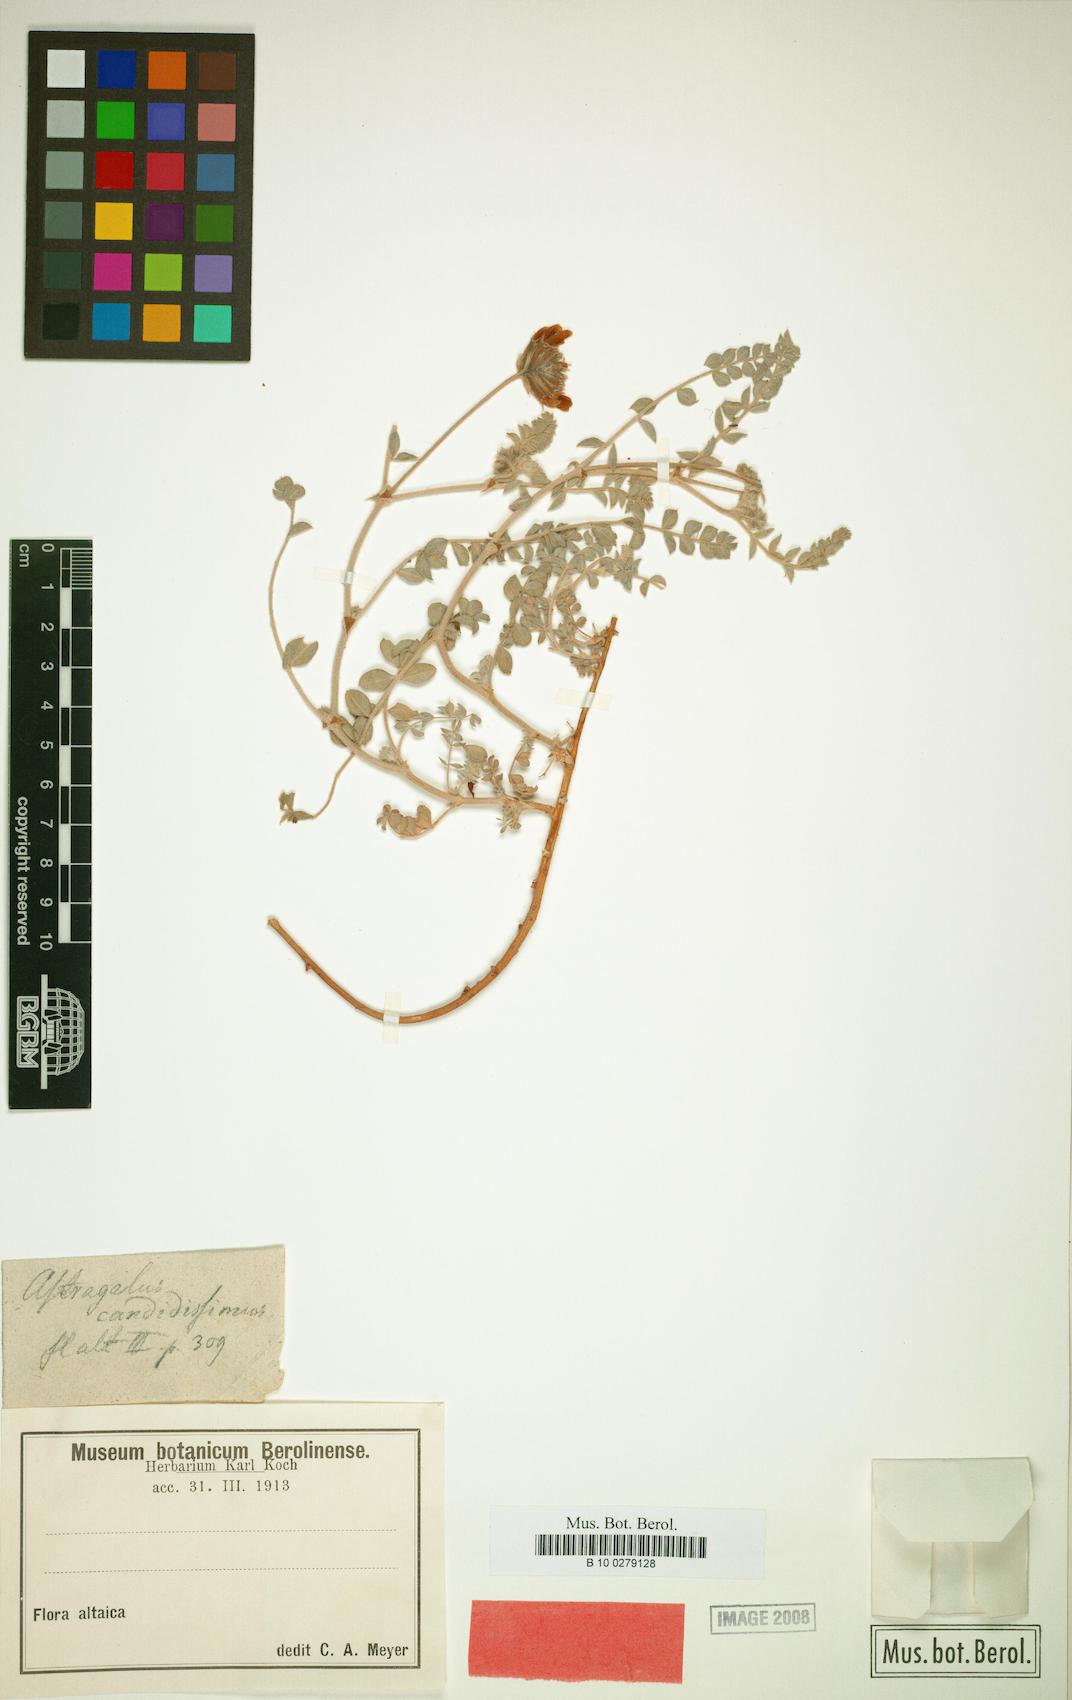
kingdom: Plantae
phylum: Tracheophyta
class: Magnoliopsida
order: Fabales
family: Fabaceae
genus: Astragalus
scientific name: Astragalus candidissimus
